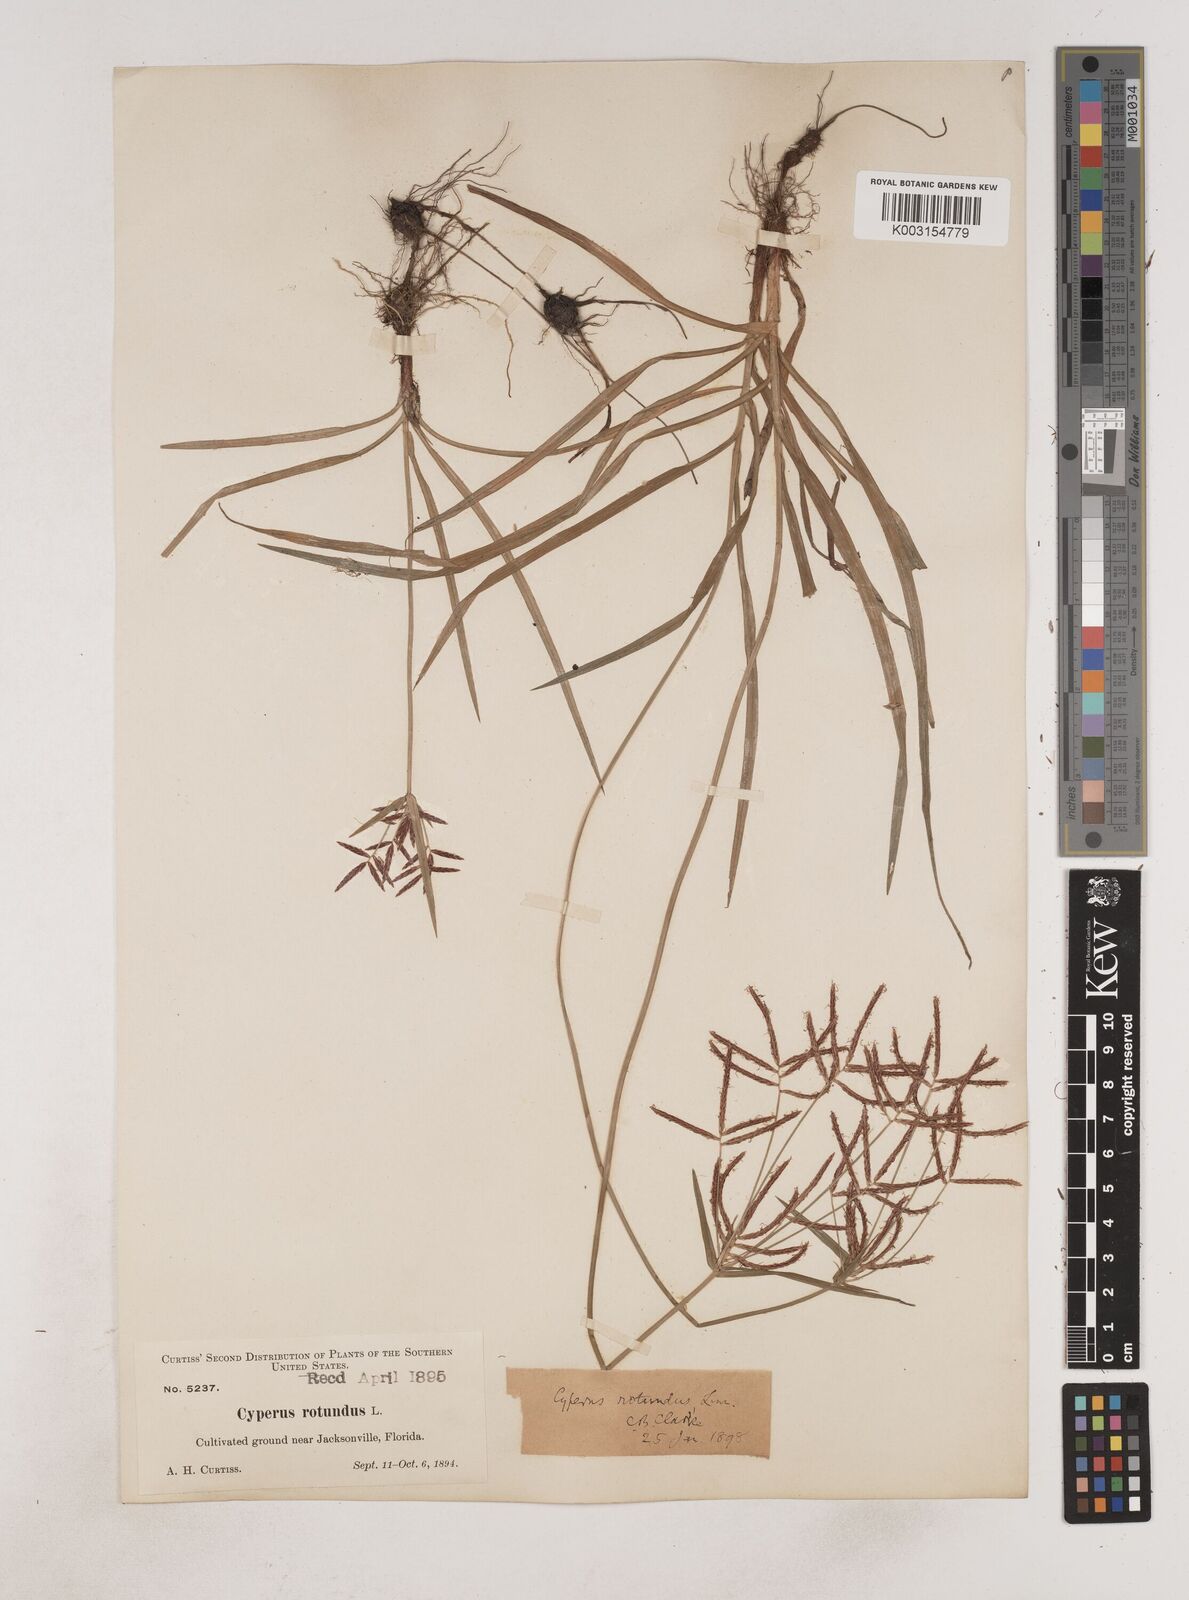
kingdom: Plantae
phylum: Tracheophyta
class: Liliopsida
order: Poales
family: Cyperaceae
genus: Cyperus
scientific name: Cyperus rotundus
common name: Nutgrass
